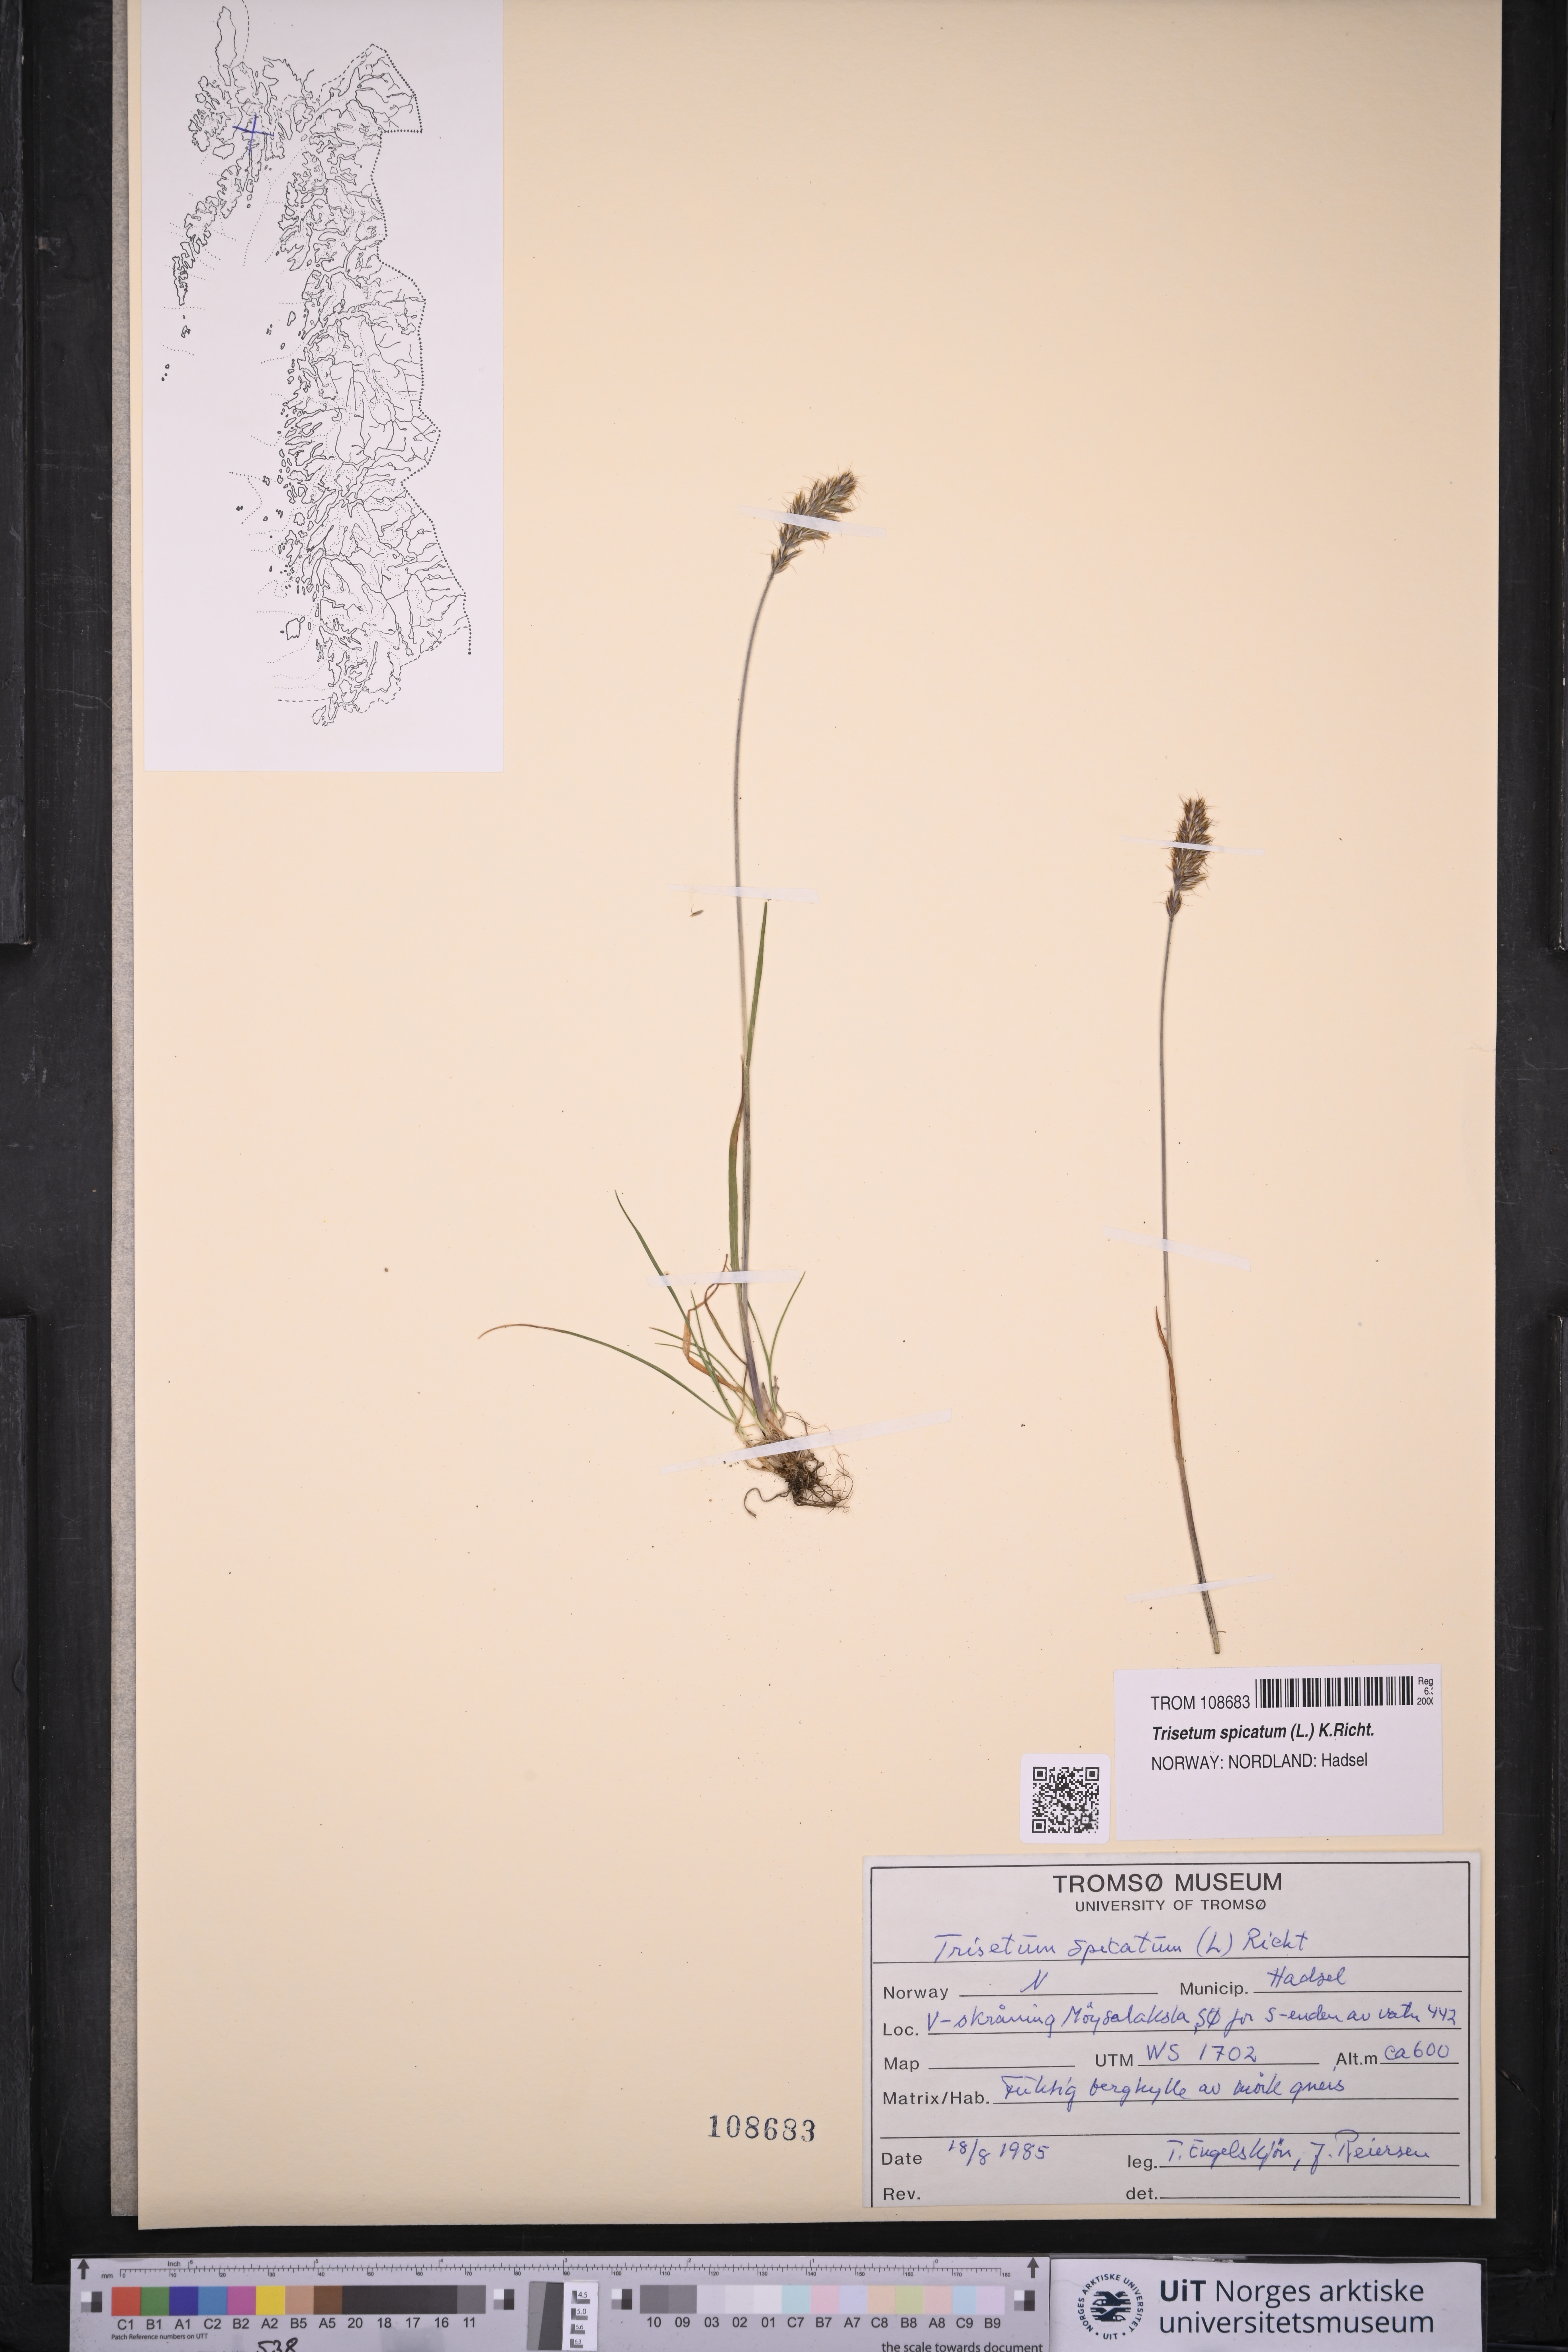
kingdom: Plantae
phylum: Tracheophyta
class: Liliopsida
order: Poales
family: Poaceae
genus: Koeleria
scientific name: Koeleria spicata
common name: Mountain trisetum
